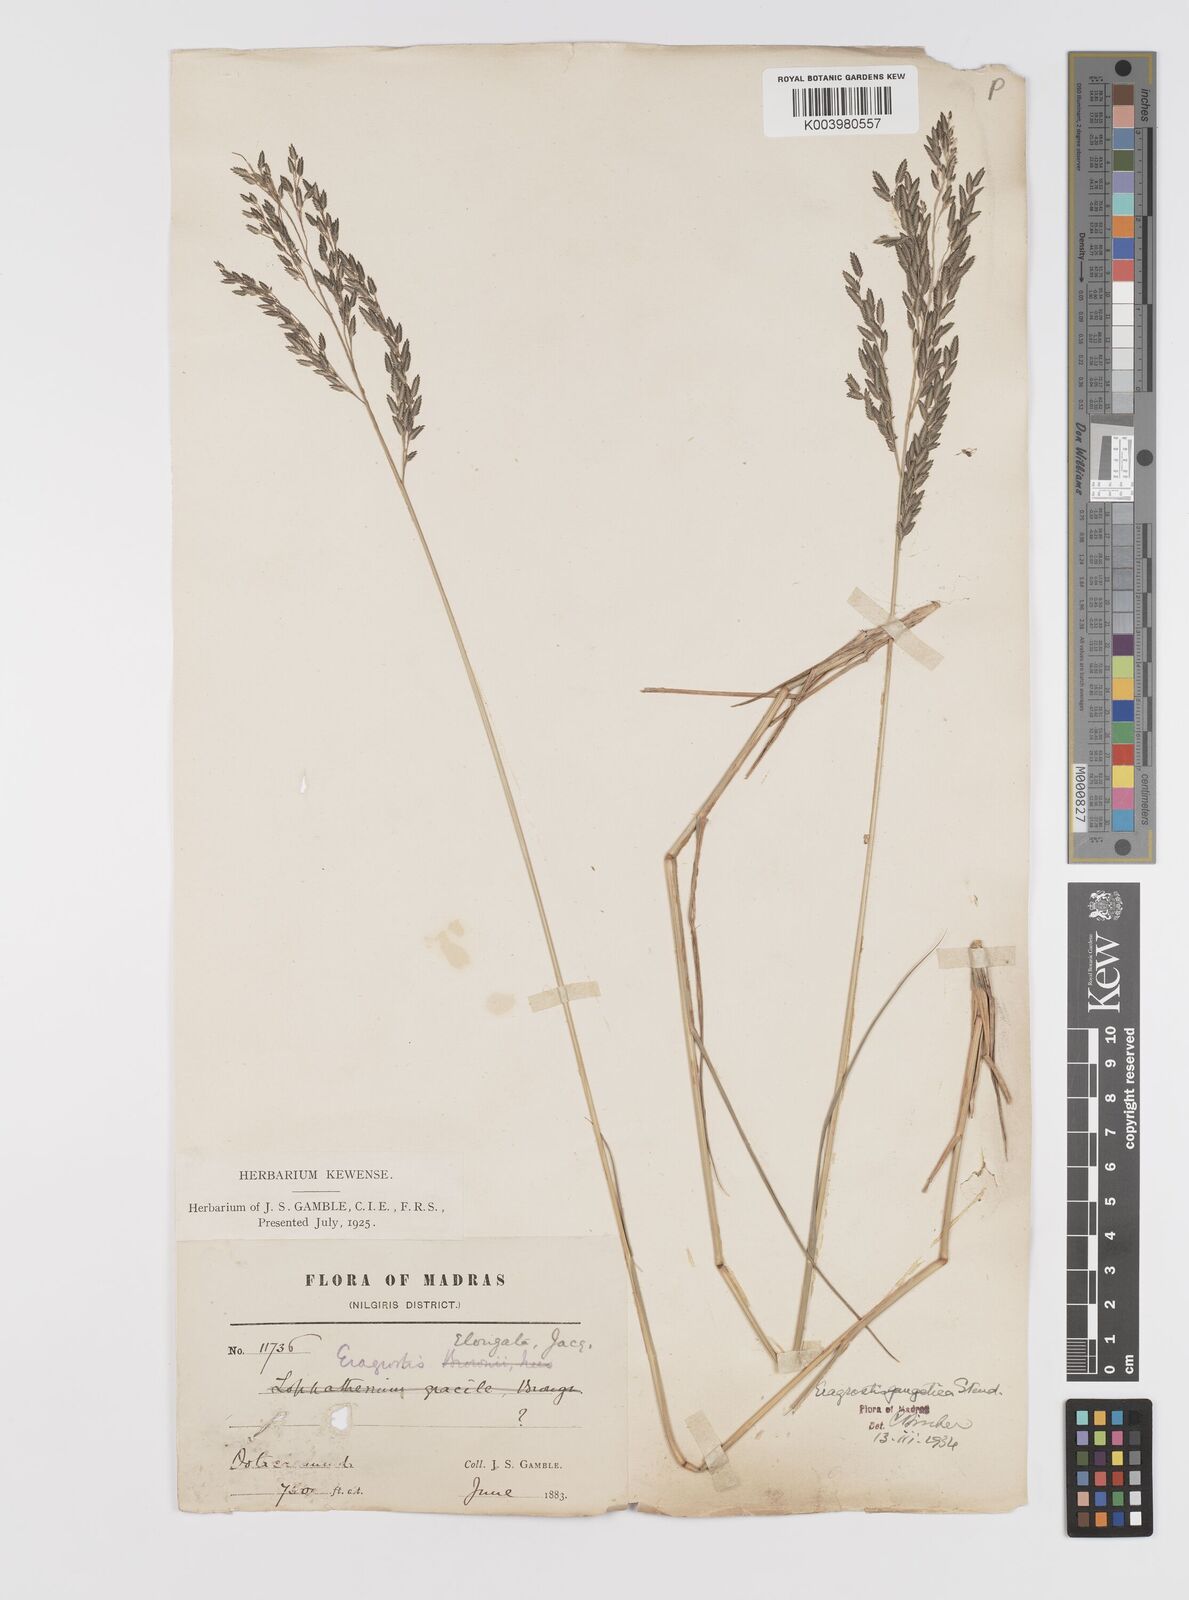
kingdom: Plantae
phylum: Tracheophyta
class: Liliopsida
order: Poales
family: Poaceae
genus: Eragrostis
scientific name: Eragrostis
